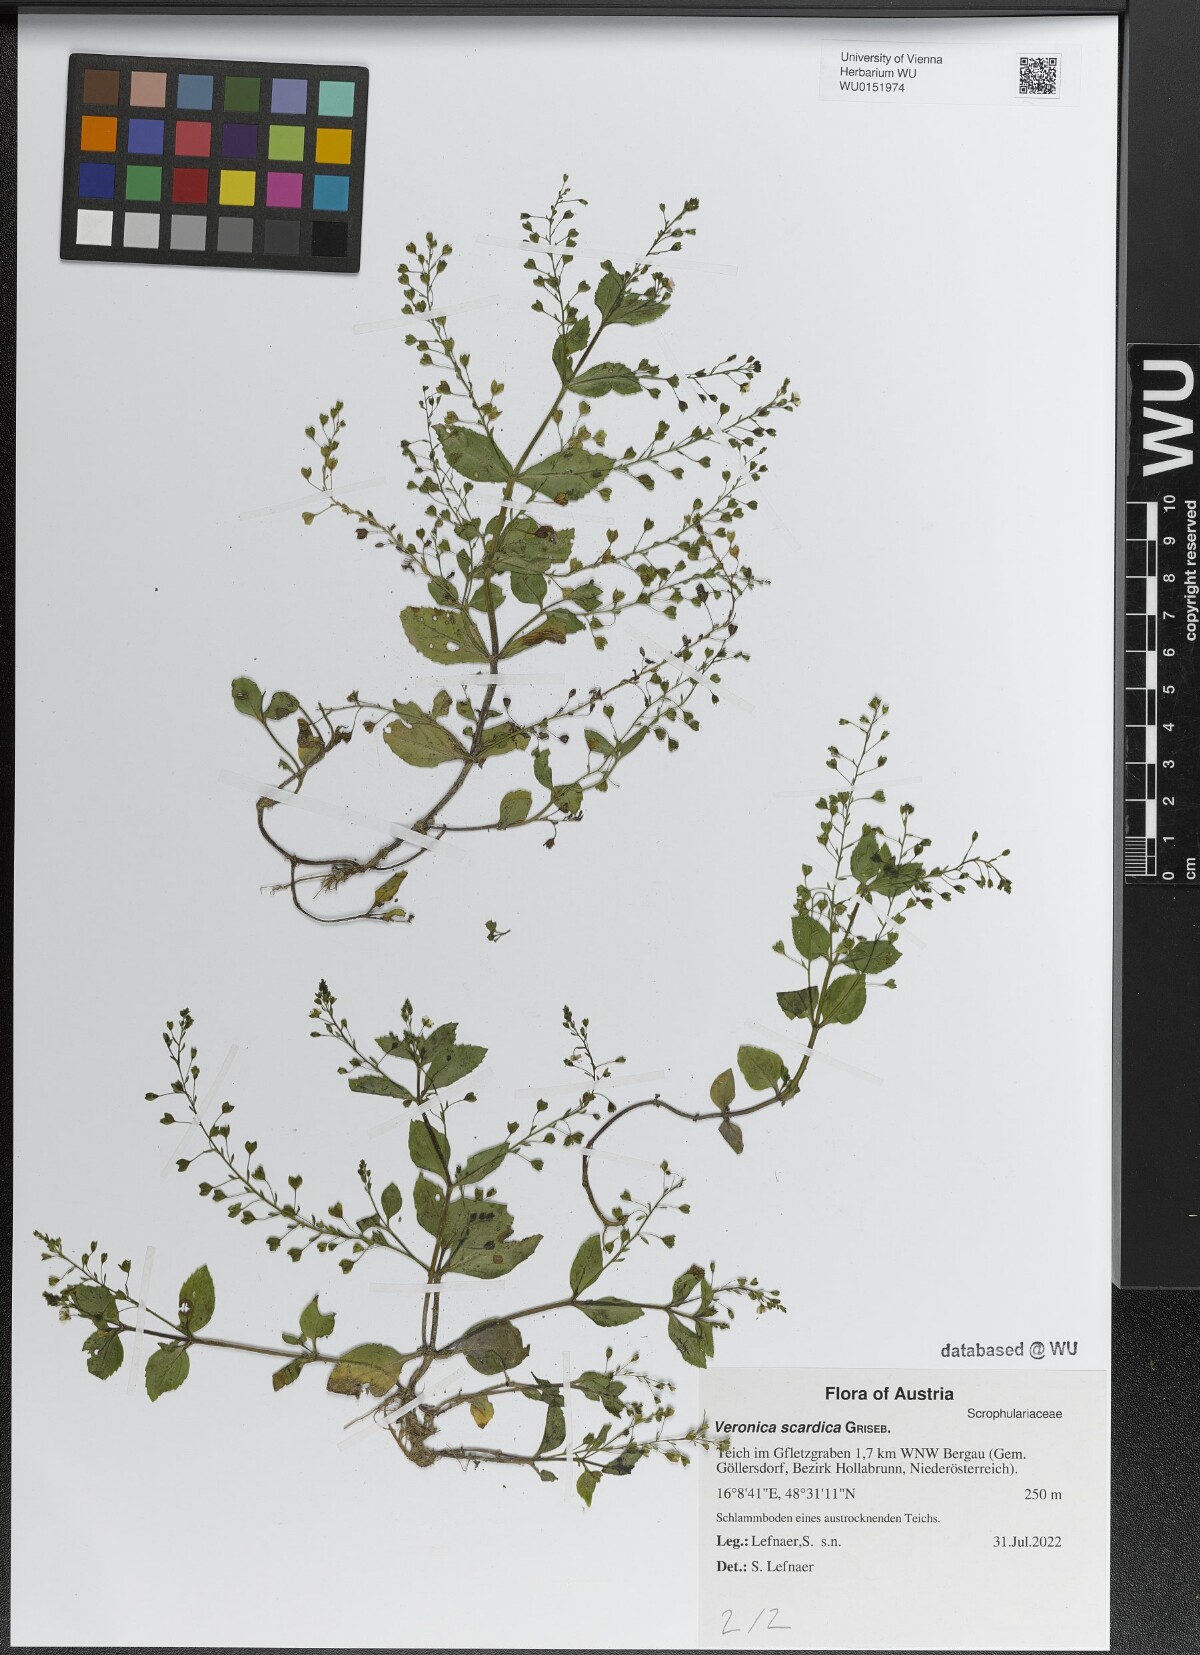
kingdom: Plantae
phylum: Tracheophyta
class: Magnoliopsida
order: Lamiales
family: Plantaginaceae
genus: Veronica
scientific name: Veronica scardica
